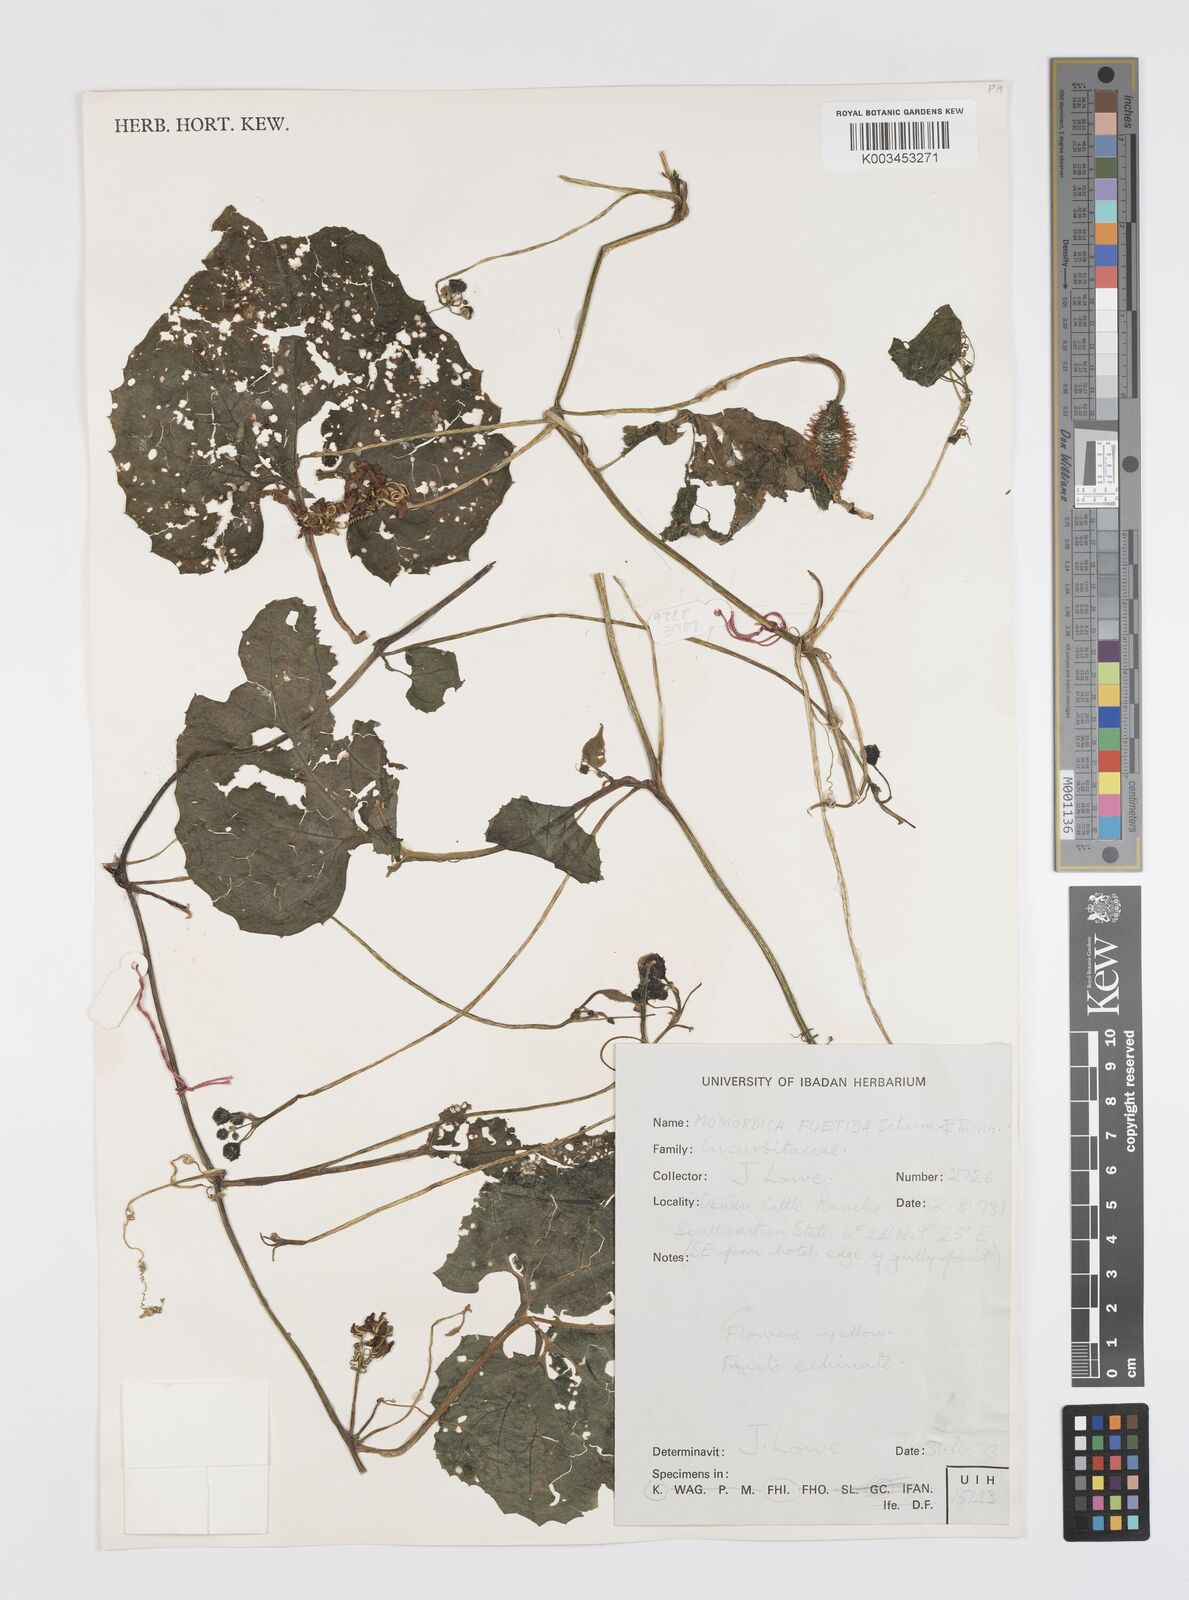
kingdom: Plantae
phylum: Tracheophyta
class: Magnoliopsida
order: Cucurbitales
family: Cucurbitaceae
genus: Momordica
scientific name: Momordica foetida
